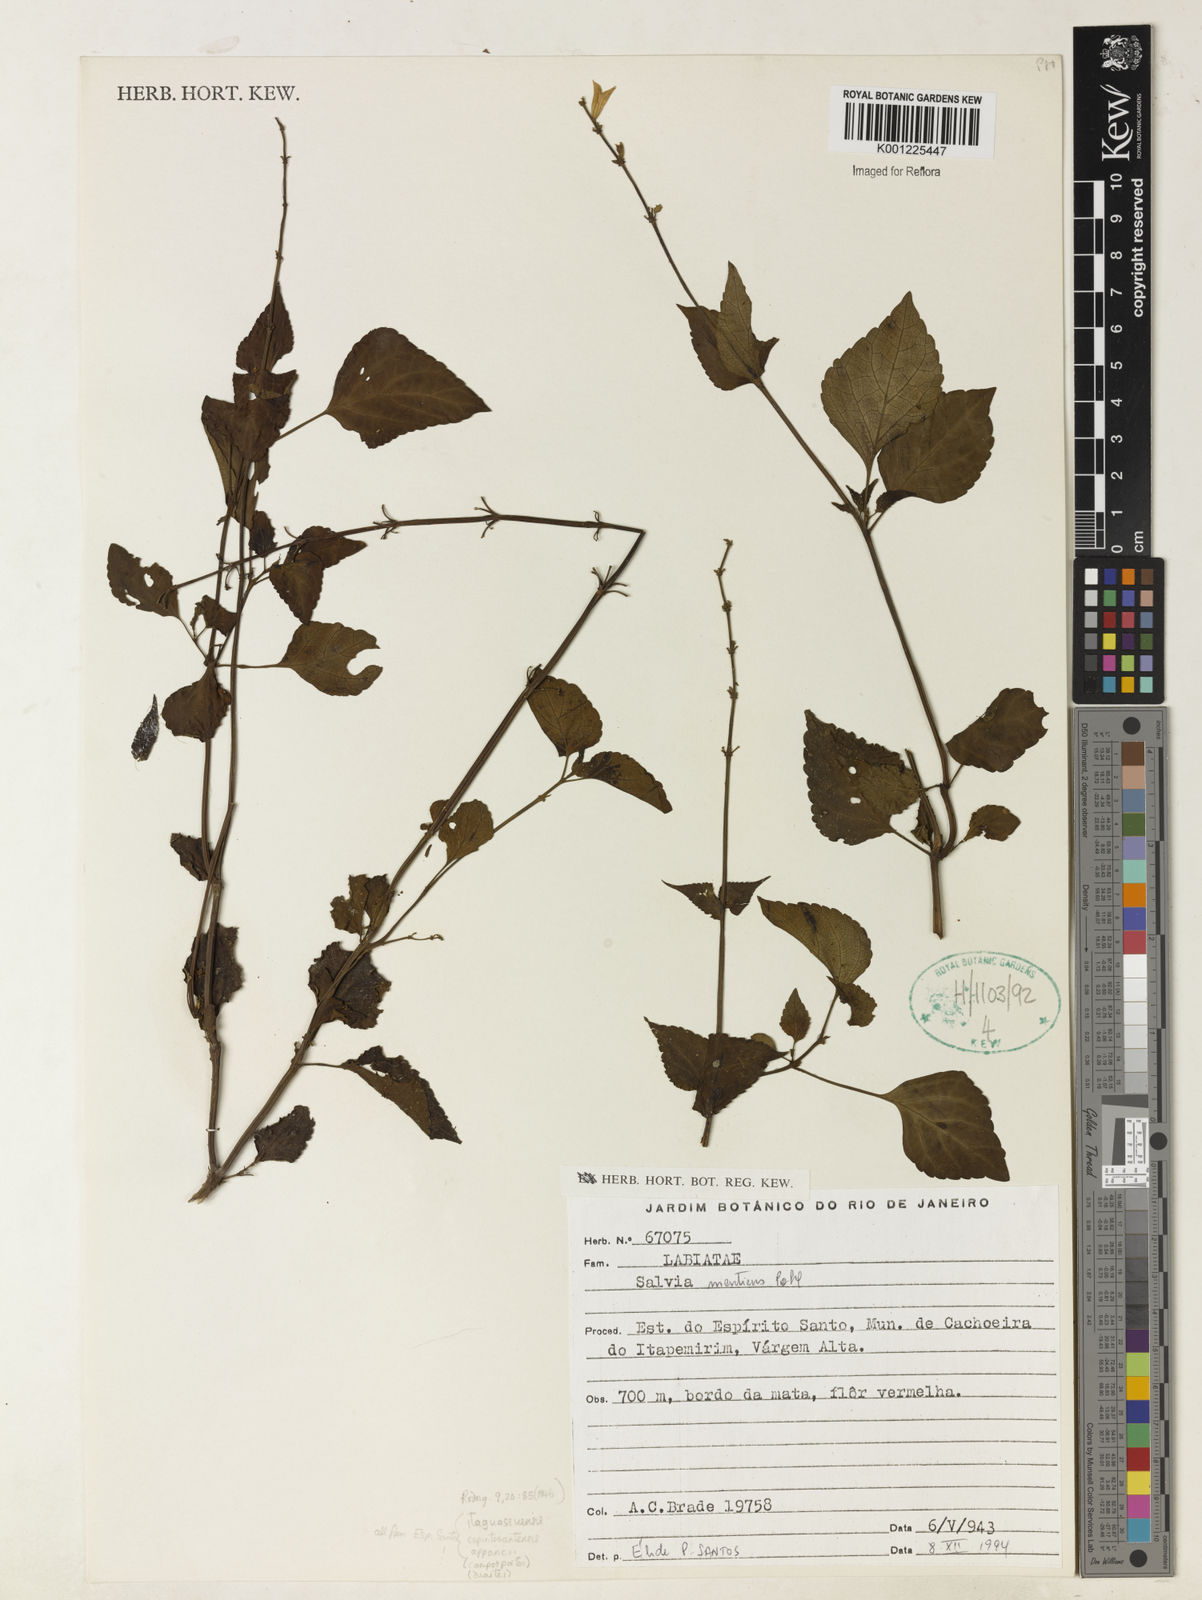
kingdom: Plantae
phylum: Tracheophyta
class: Magnoliopsida
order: Lamiales
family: Lamiaceae
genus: Salvia
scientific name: Salvia mentiens
